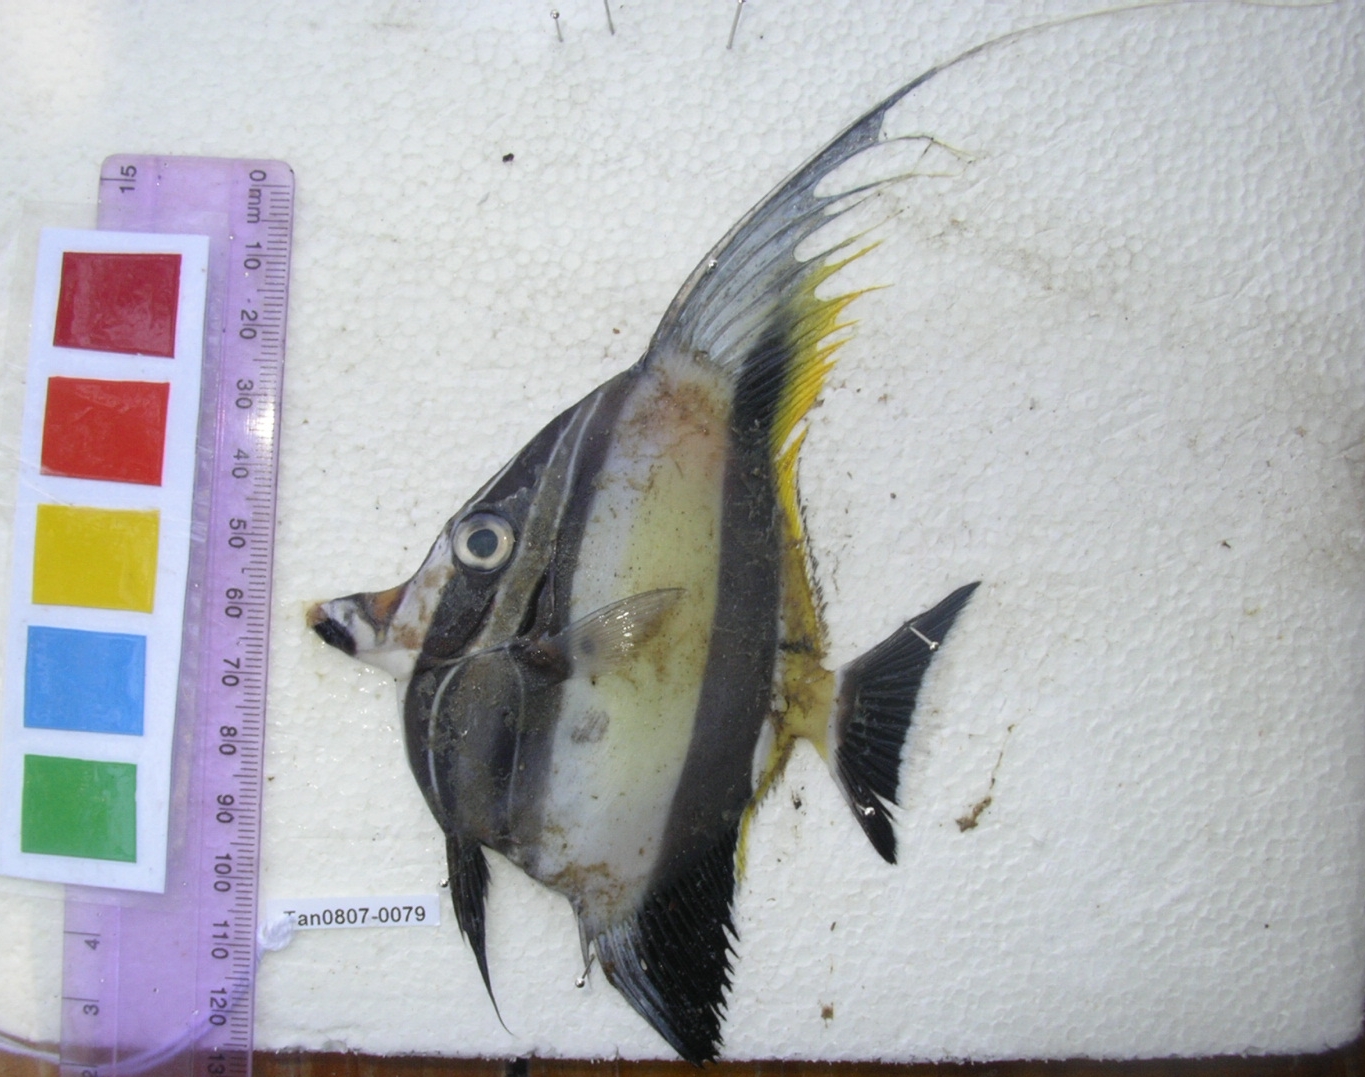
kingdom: Animalia
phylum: Chordata
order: Perciformes
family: Zanclidae
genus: Zanclus
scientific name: Zanclus cornutus
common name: Moorish idol
